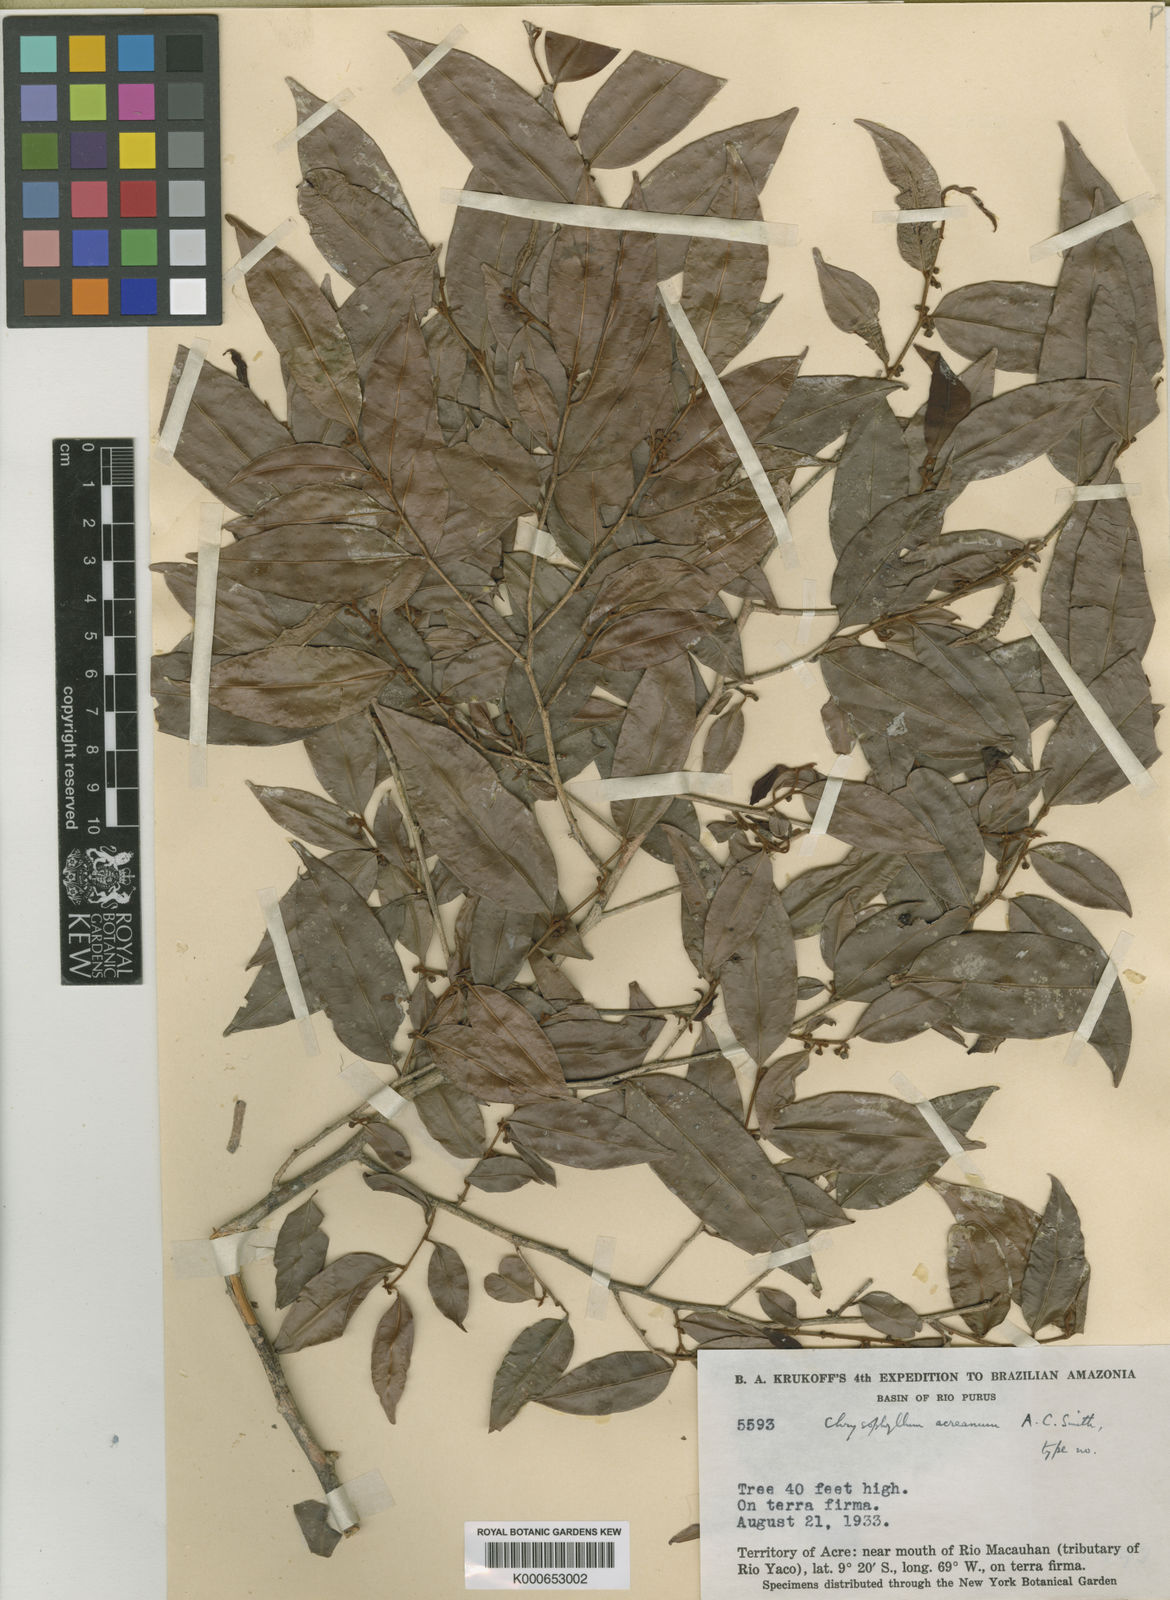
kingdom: Plantae
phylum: Tracheophyta
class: Magnoliopsida
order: Ericales
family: Sapotaceae
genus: Chrysophyllum
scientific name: Chrysophyllum acreanum
